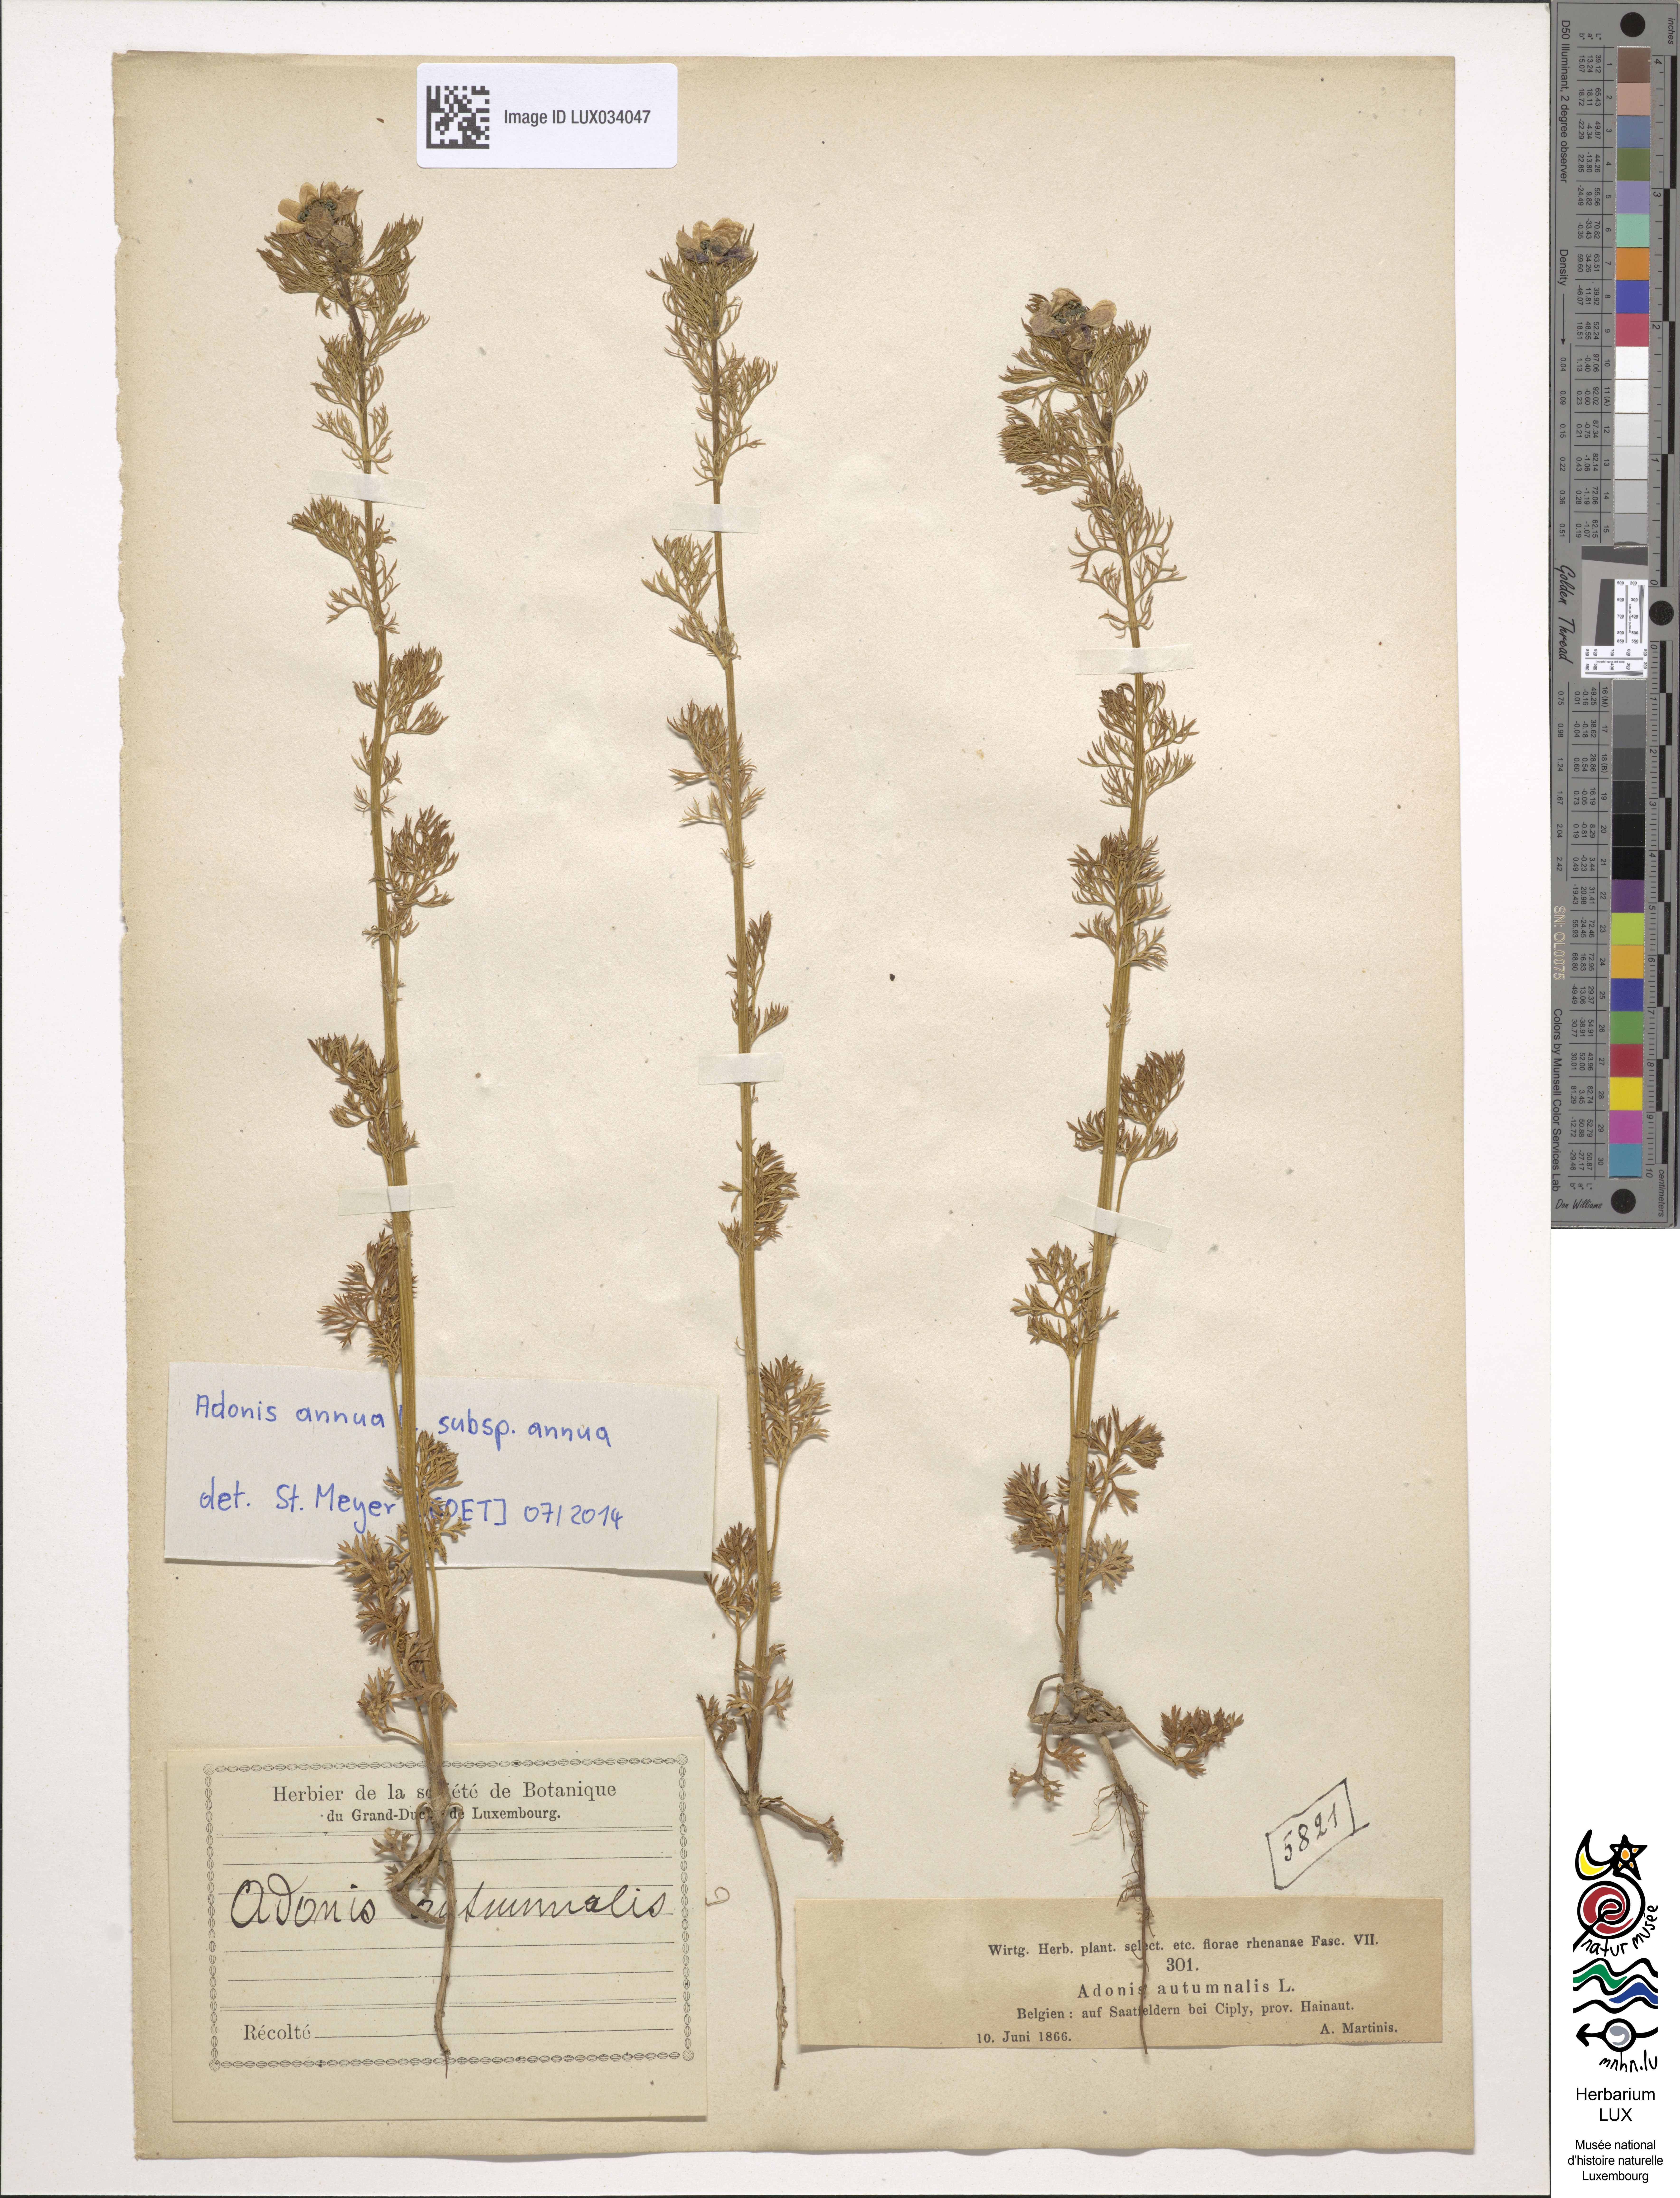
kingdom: Plantae
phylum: Tracheophyta
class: Magnoliopsida
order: Ranunculales
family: Ranunculaceae
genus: Adonis
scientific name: Adonis annua
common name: Pheasant's-eye
